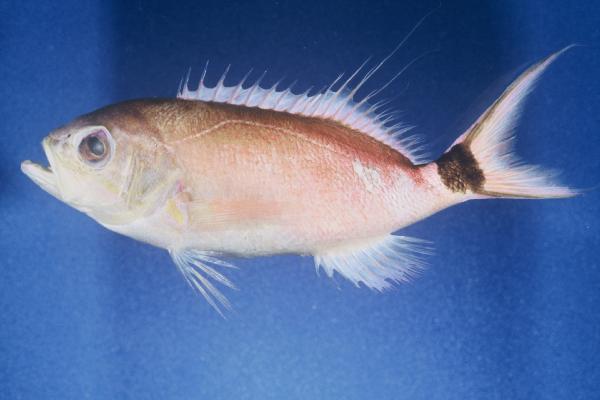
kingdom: Animalia
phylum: Chordata
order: Perciformes
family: Serranidae
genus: Odontanthias
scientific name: Odontanthias caudicinctus
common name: Blackblotch swallowtail
